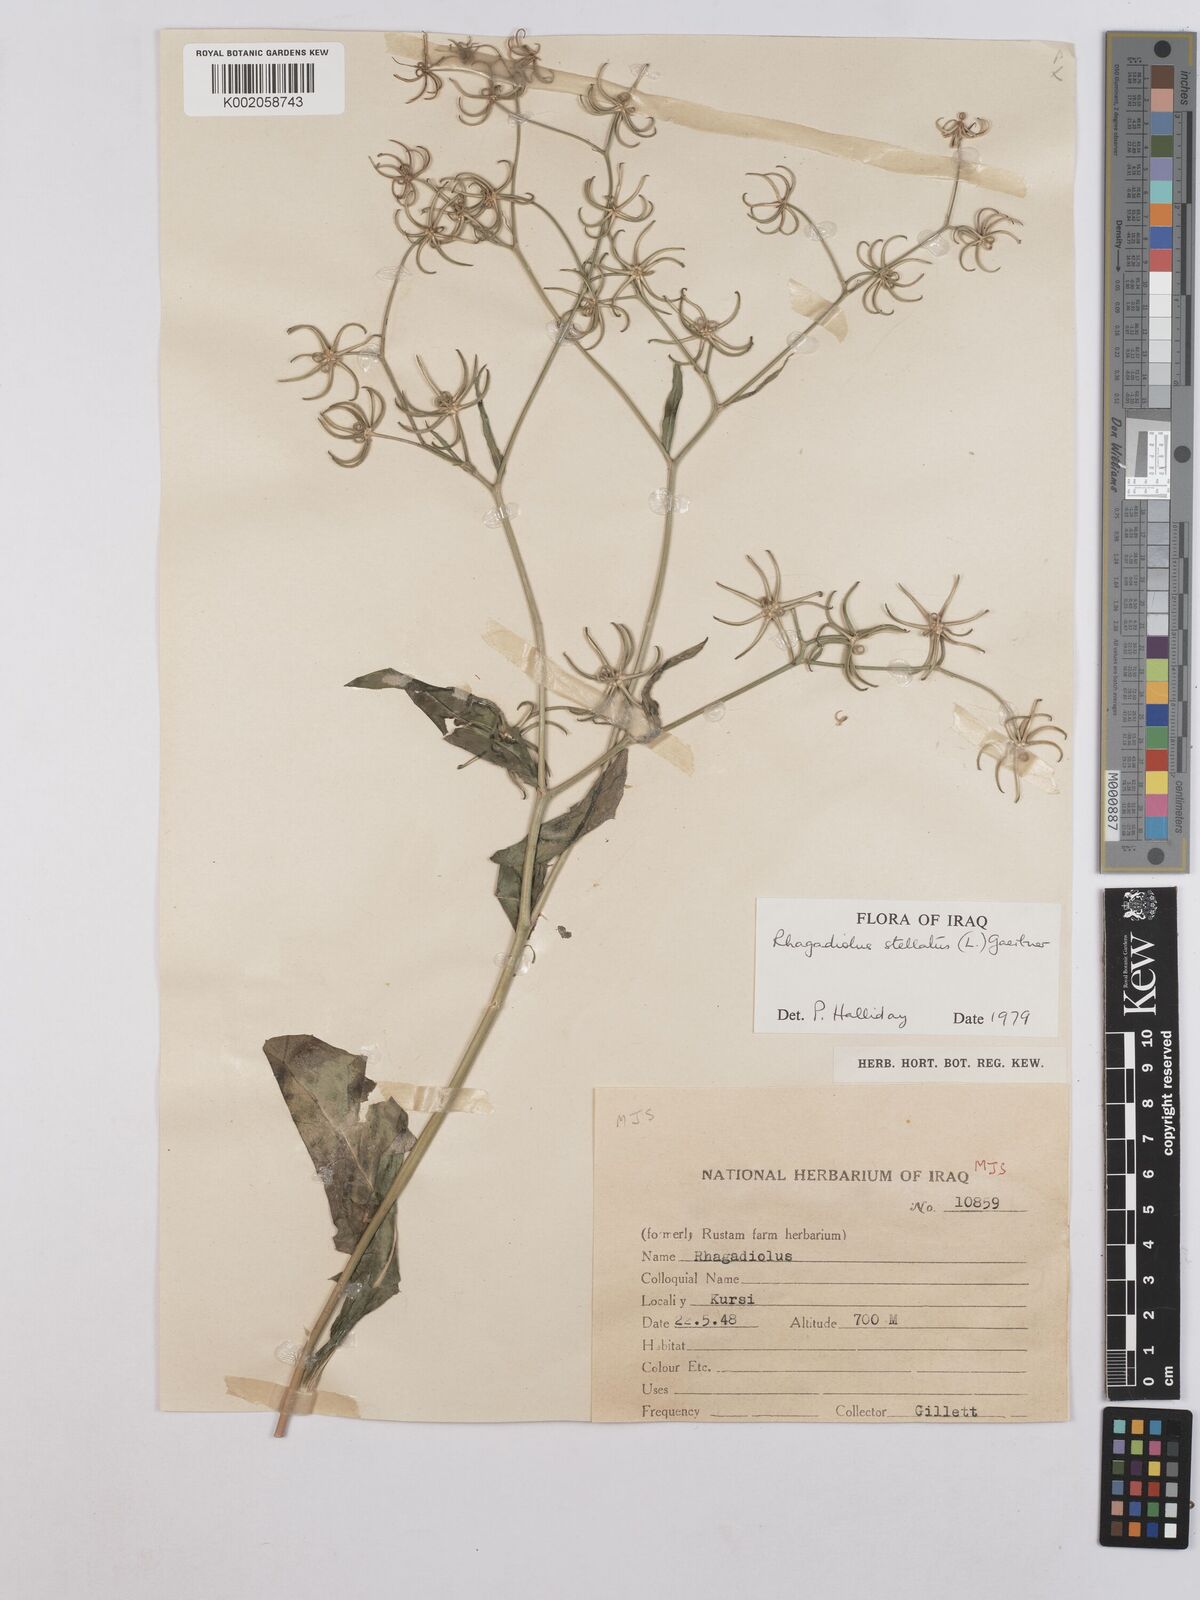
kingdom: Plantae
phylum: Tracheophyta
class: Magnoliopsida
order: Asterales
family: Asteraceae
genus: Rhagadiolus
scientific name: Rhagadiolus stellatus
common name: Star hawkbit
